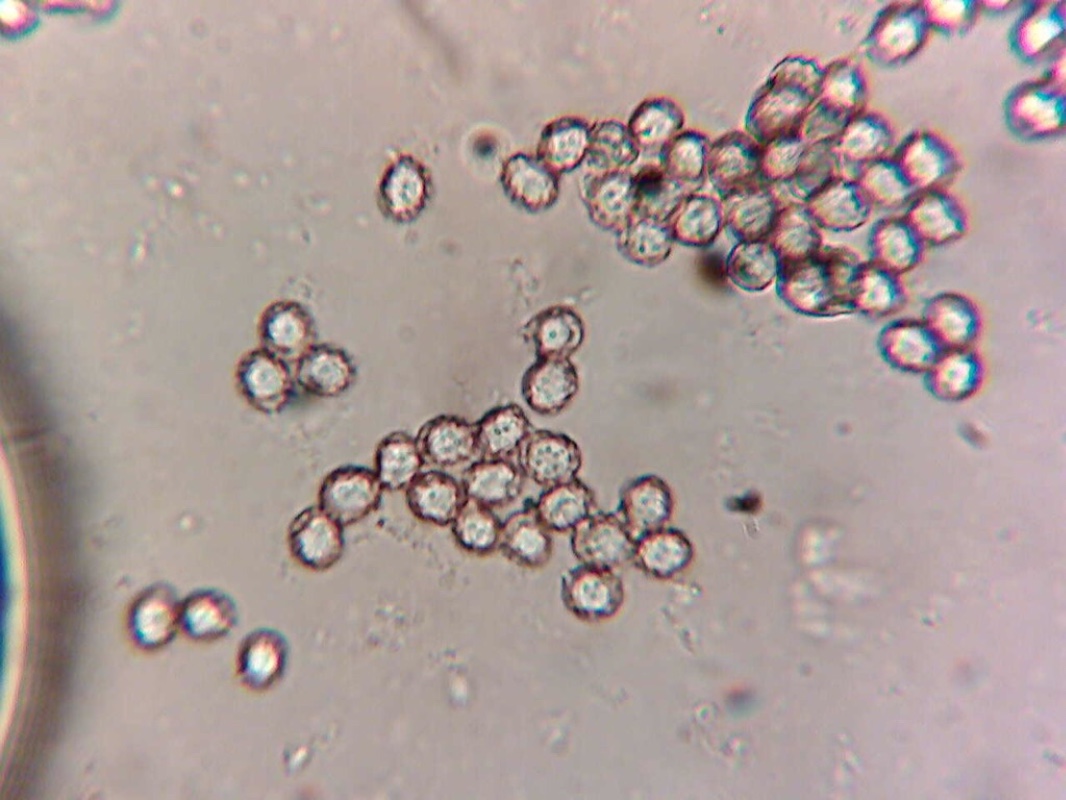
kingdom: Fungi
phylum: Basidiomycota
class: Agaricomycetes
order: Russulales
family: Russulaceae
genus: Russula
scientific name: Russula faustiana
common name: olivengrå skørhat
